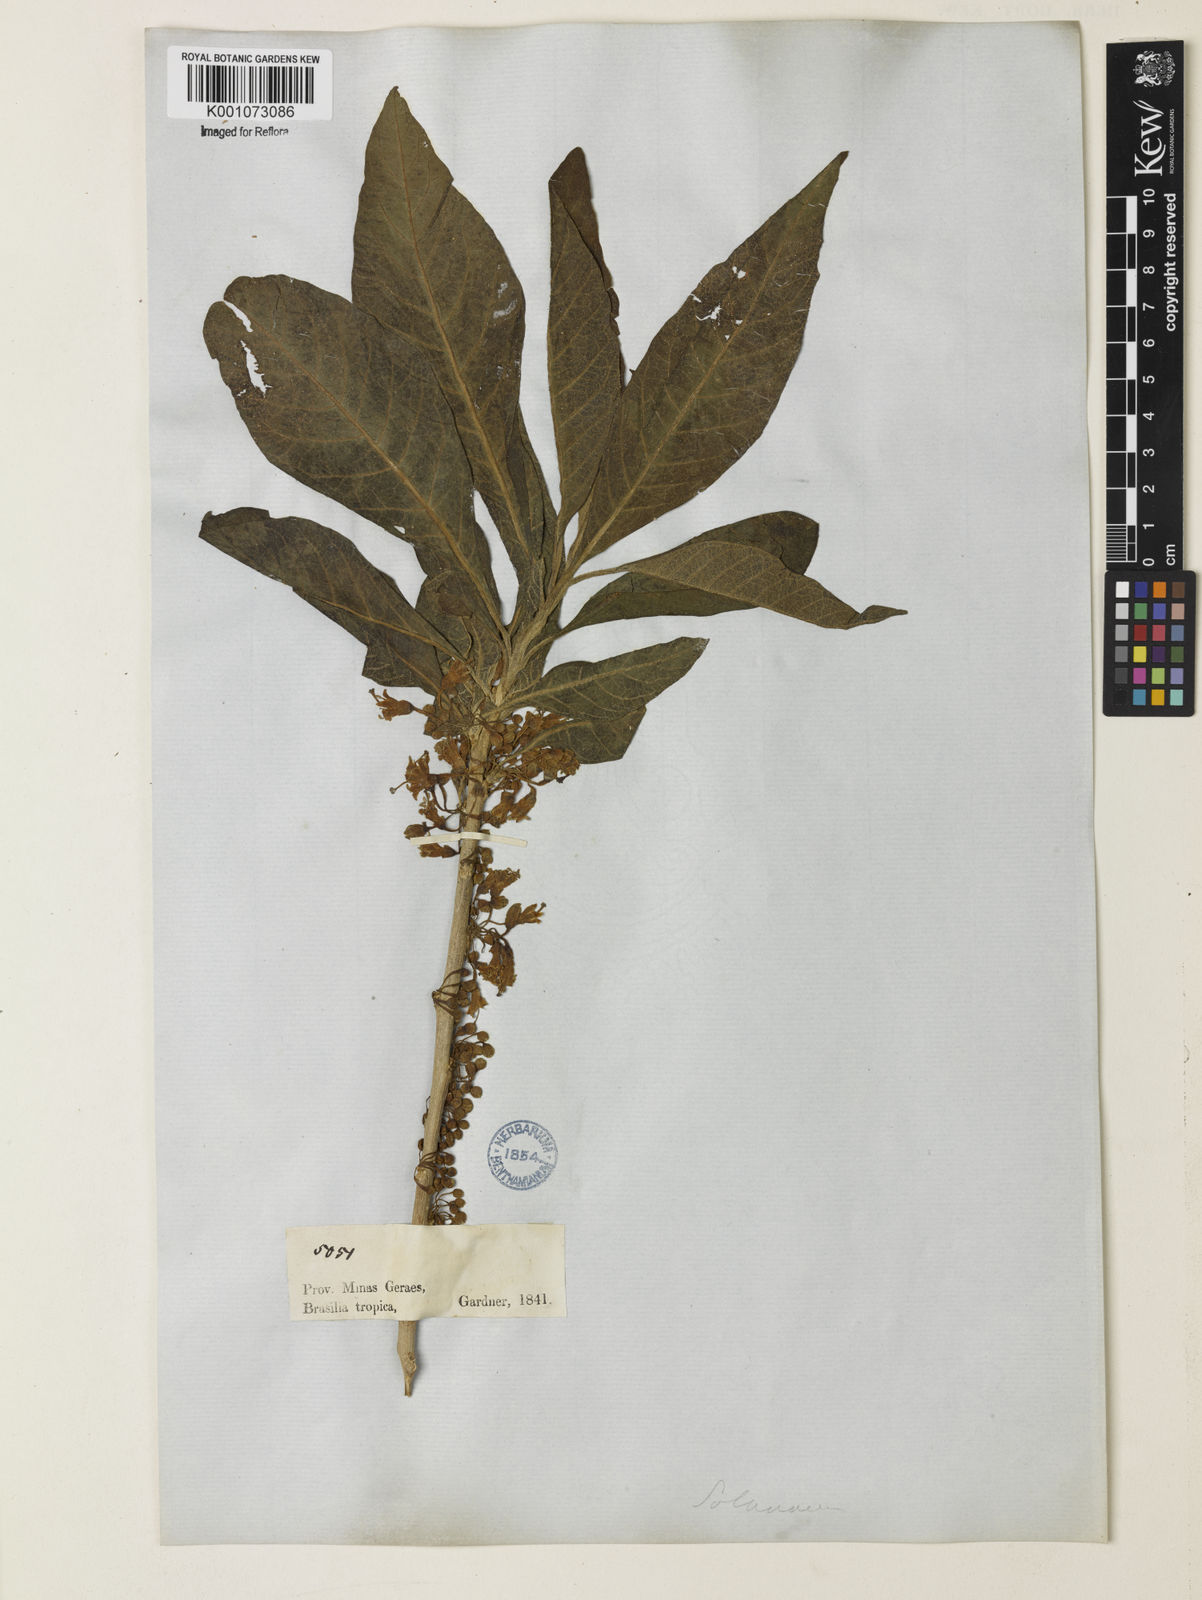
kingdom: Plantae
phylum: Tracheophyta
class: Magnoliopsida
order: Solanales
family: Solanaceae
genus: Iochroma
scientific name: Iochroma arborescens
